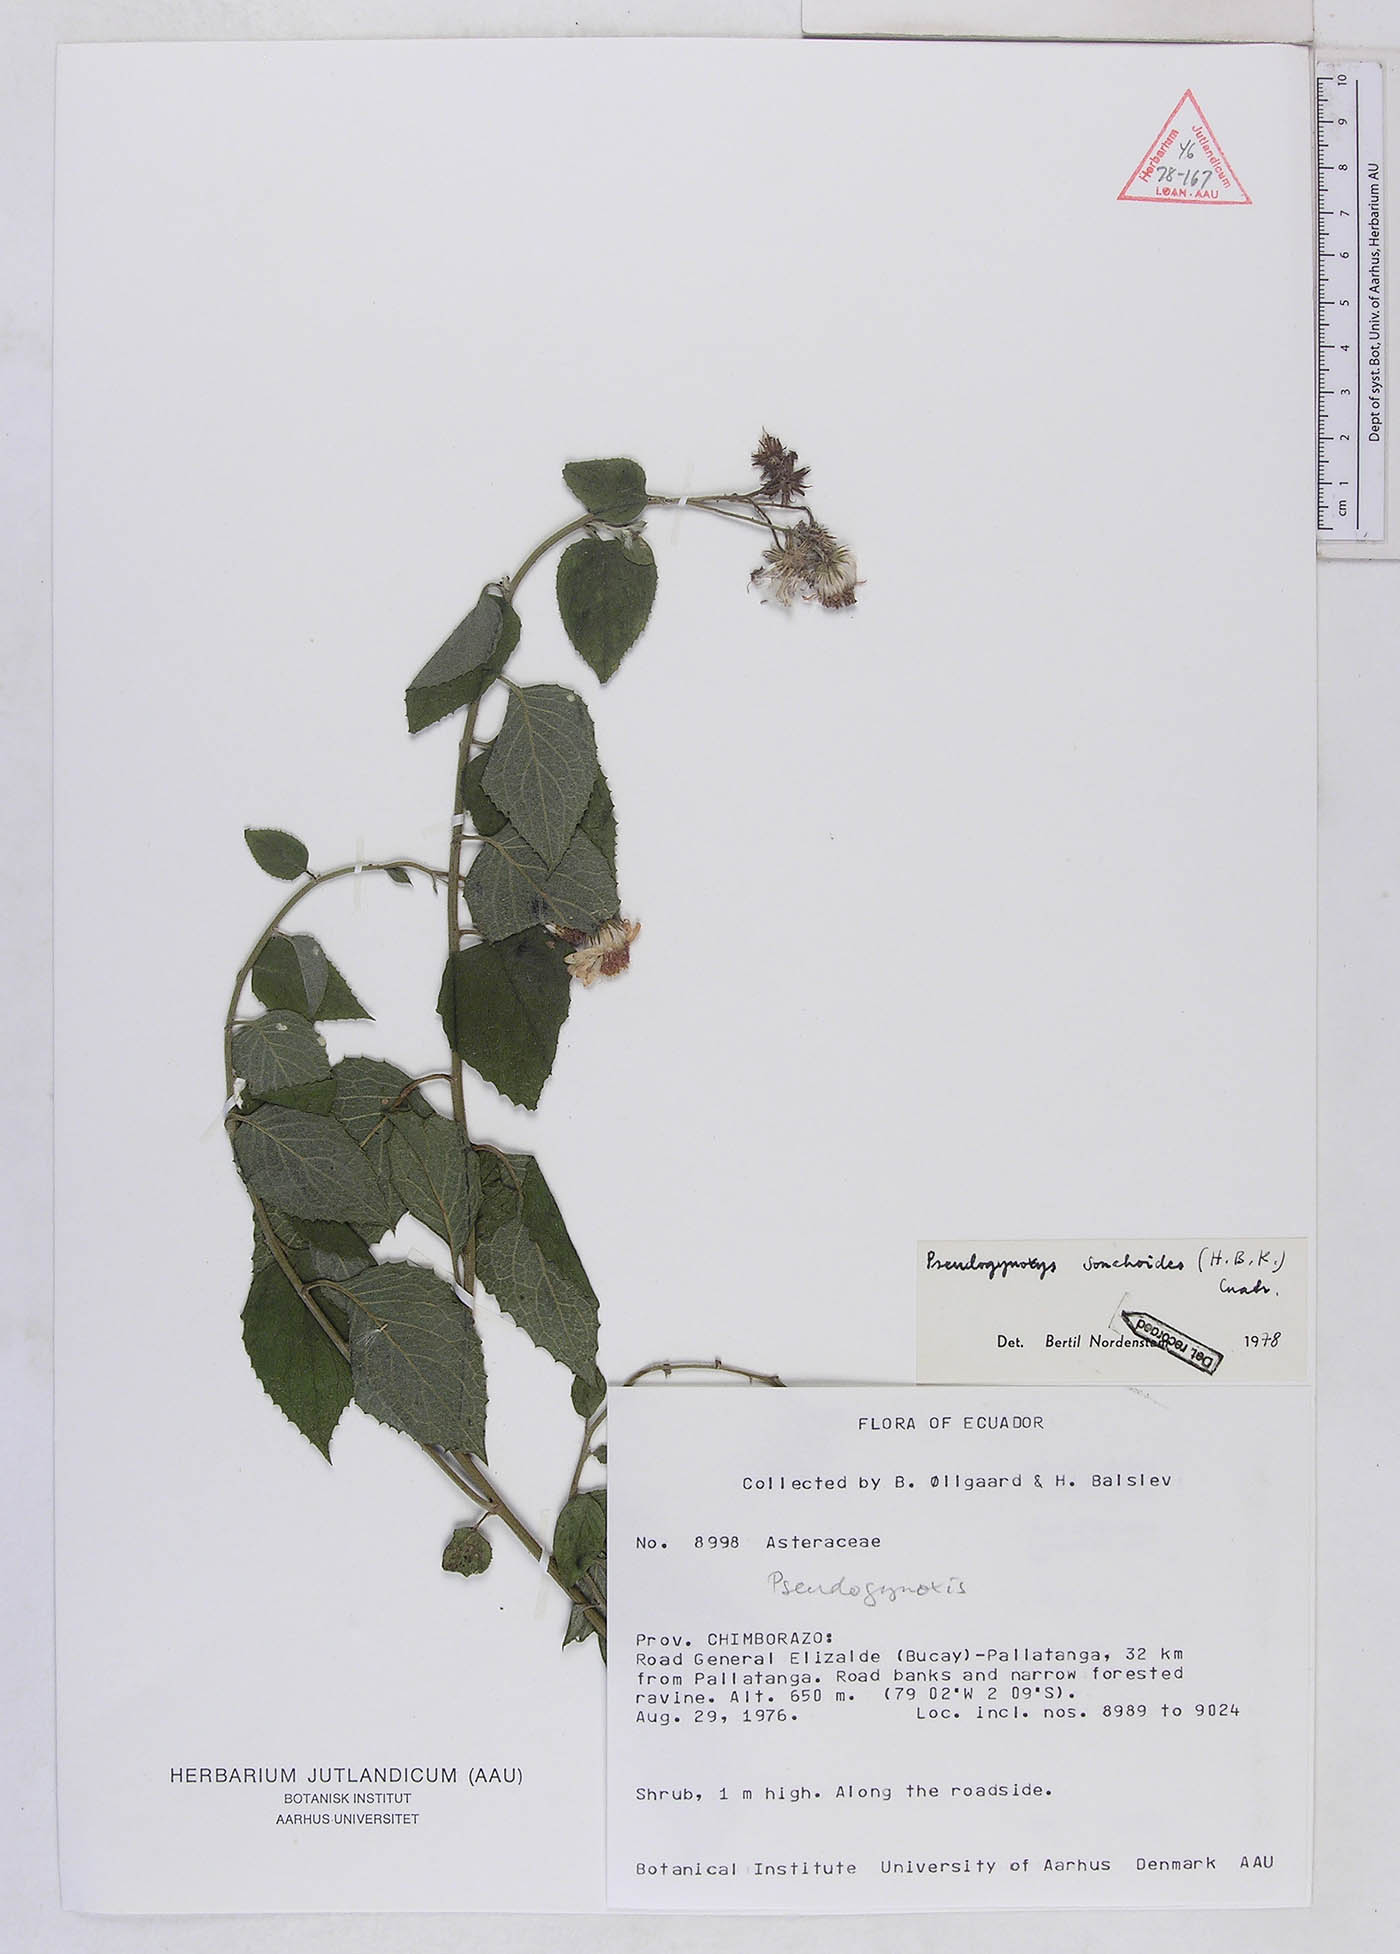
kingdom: Plantae
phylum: Tracheophyta
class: Magnoliopsida
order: Asterales
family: Asteraceae
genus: Pseudogynoxys
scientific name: Pseudogynoxys sonchoides
